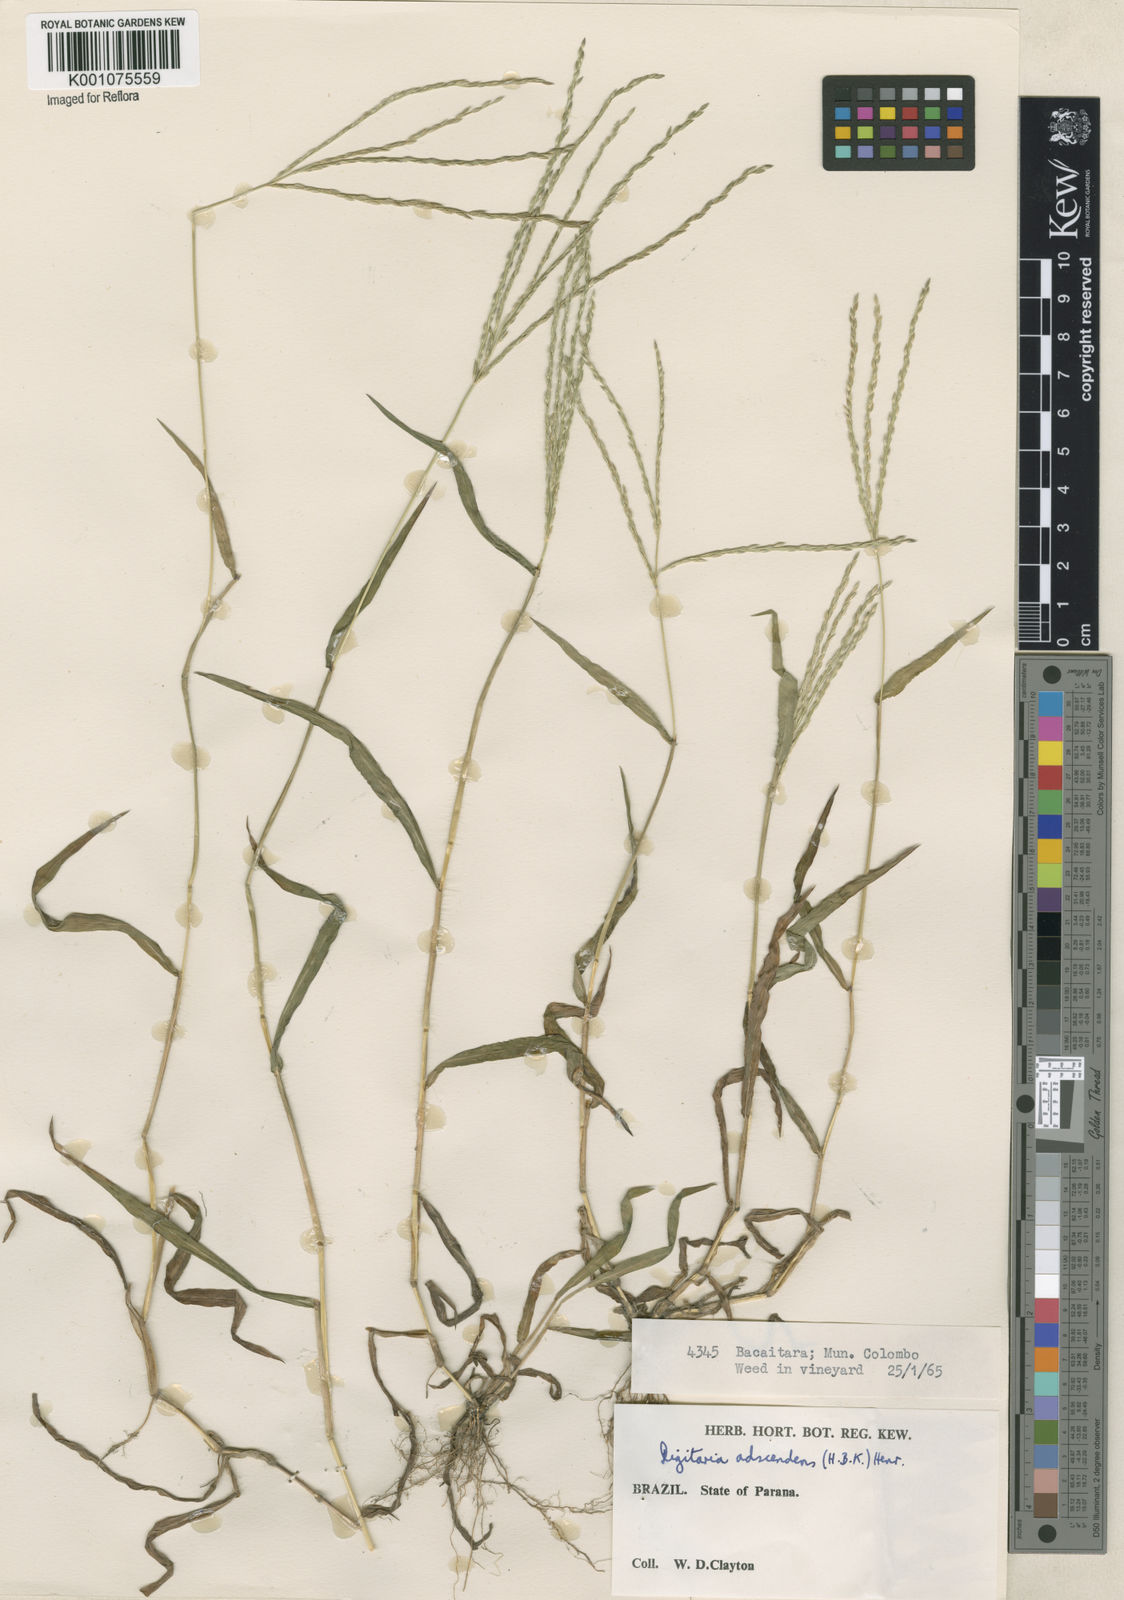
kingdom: Plantae
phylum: Tracheophyta
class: Liliopsida
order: Poales
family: Poaceae
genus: Digitaria
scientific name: Digitaria ciliaris
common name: Tropical finger-grass
